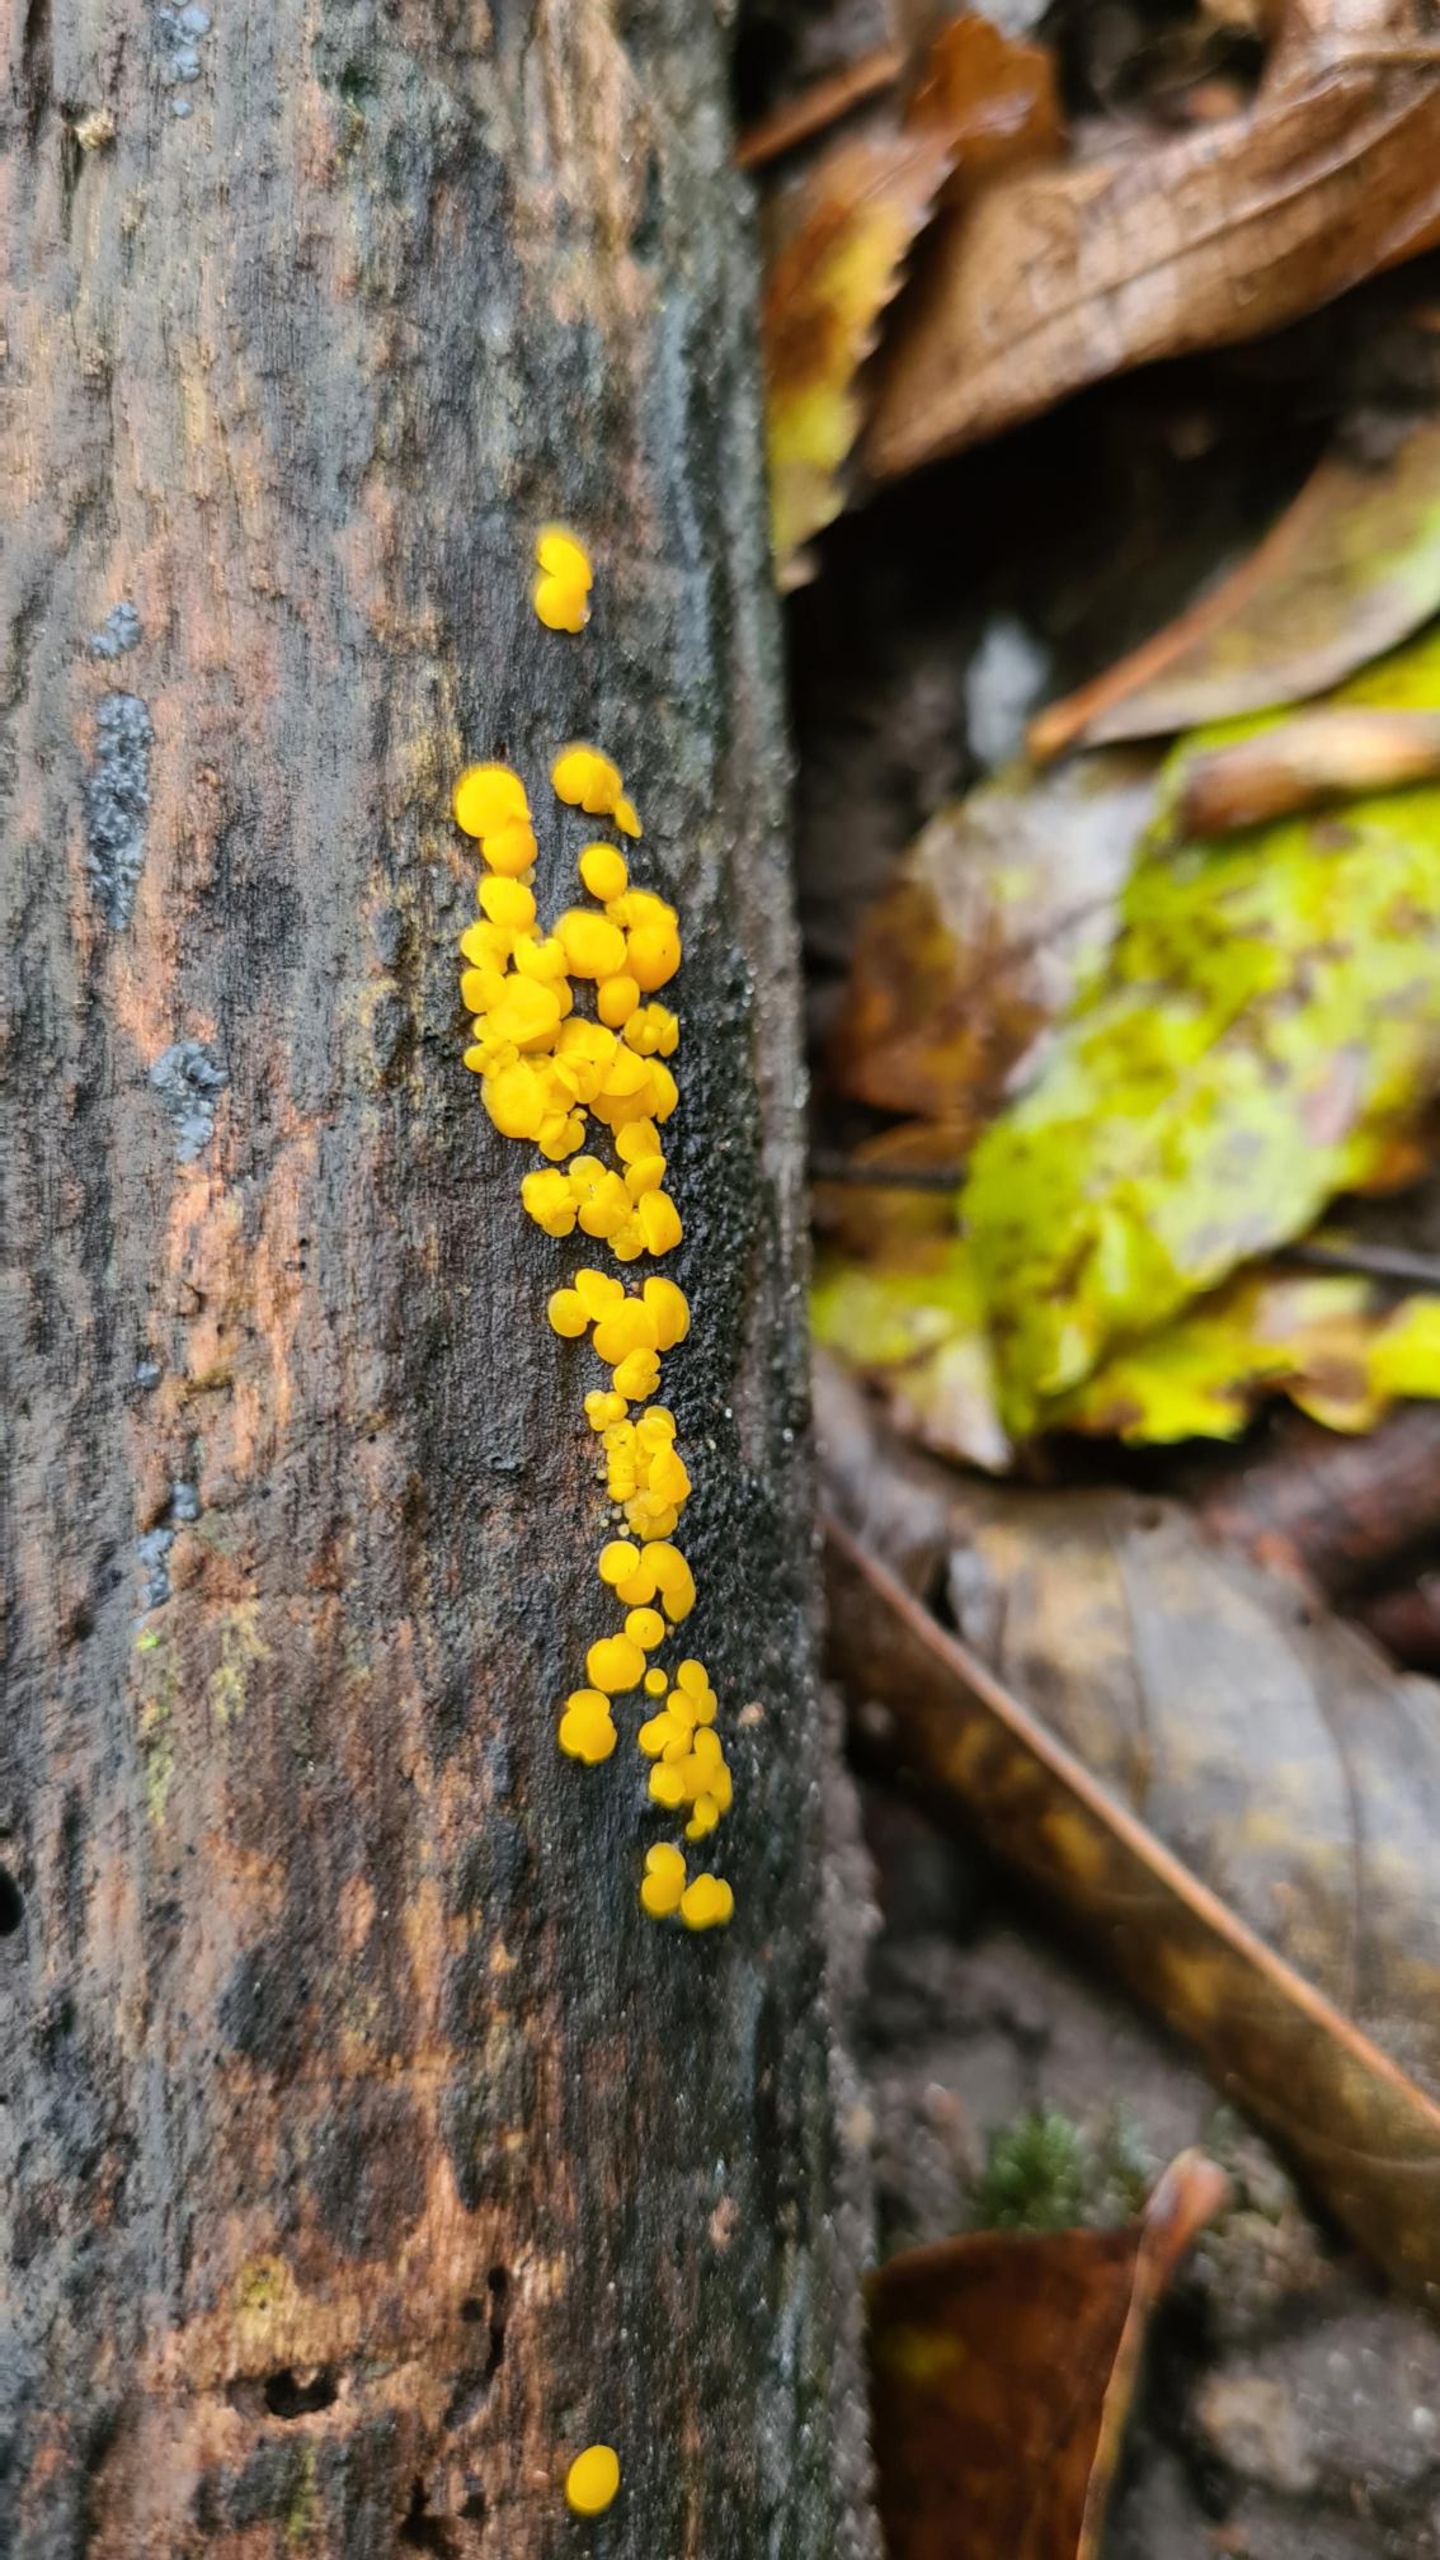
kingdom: Fungi
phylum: Ascomycota
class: Leotiomycetes
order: Helotiales
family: Pezizellaceae
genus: Calycina
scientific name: Calycina citrina
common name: Almindelig gulskive
